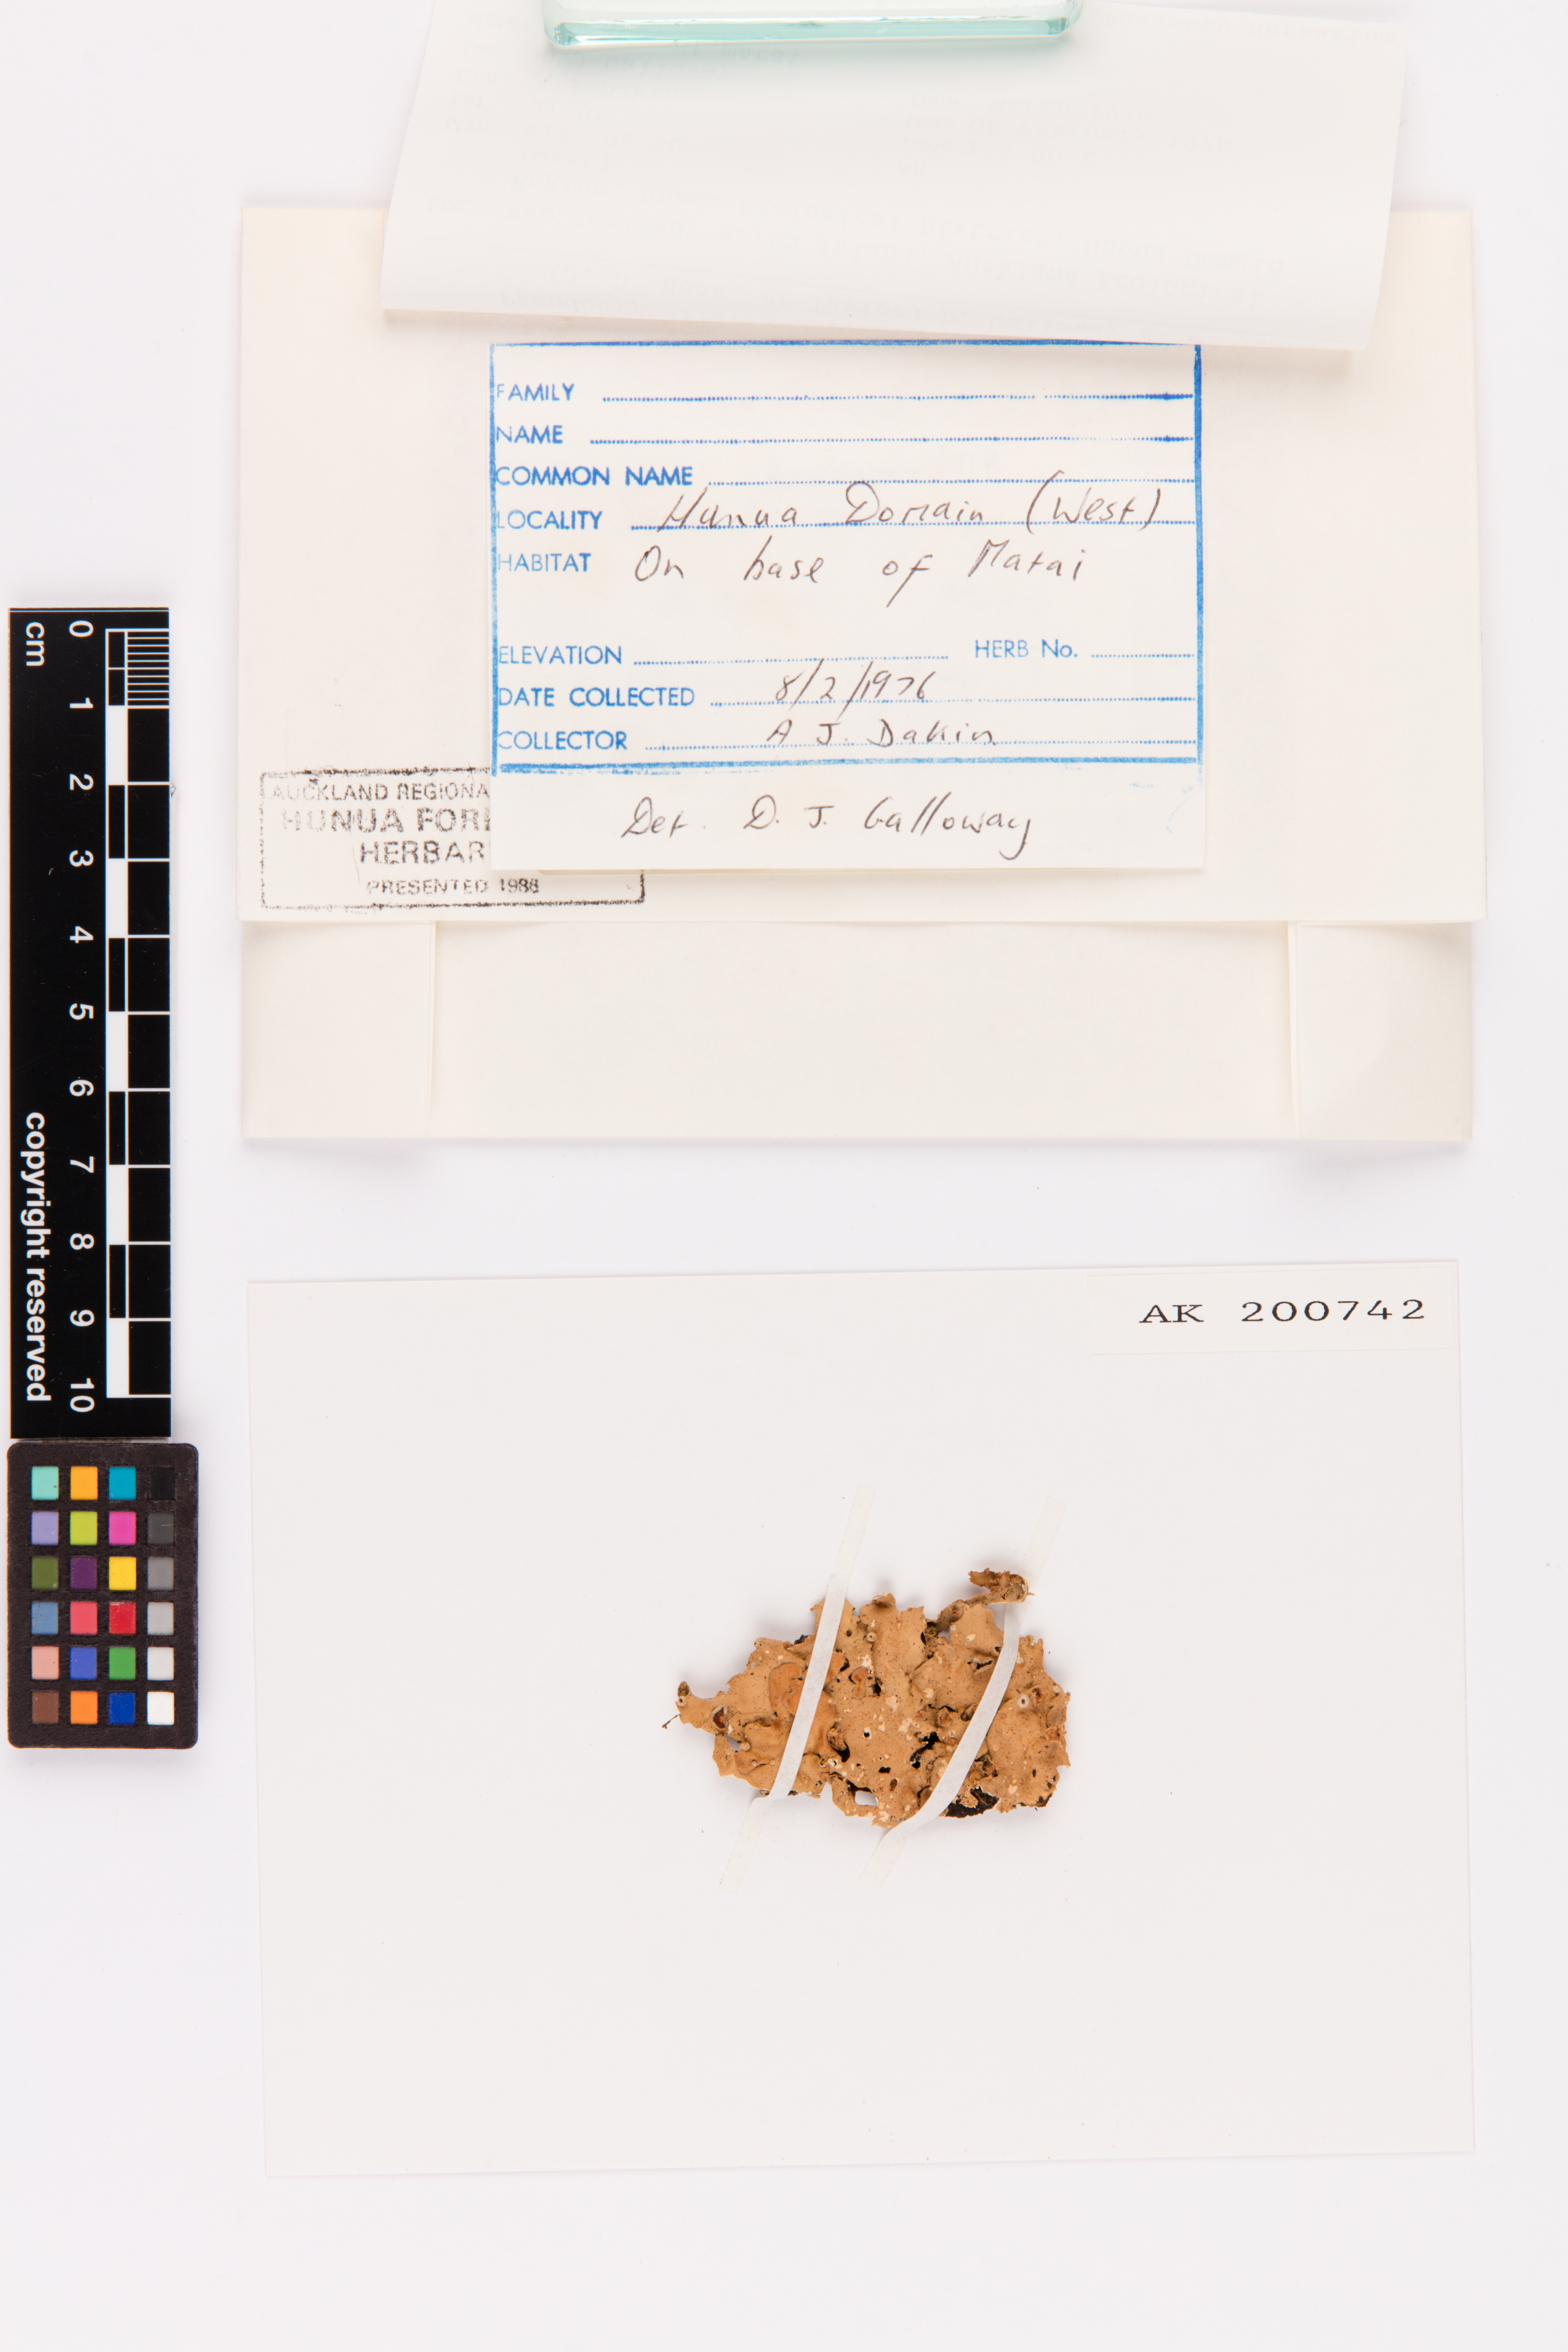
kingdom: Fungi
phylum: Ascomycota
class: Lecanoromycetes
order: Peltigerales
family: Lobariaceae
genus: Pseudocyphellaria
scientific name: Pseudocyphellaria coriacea
